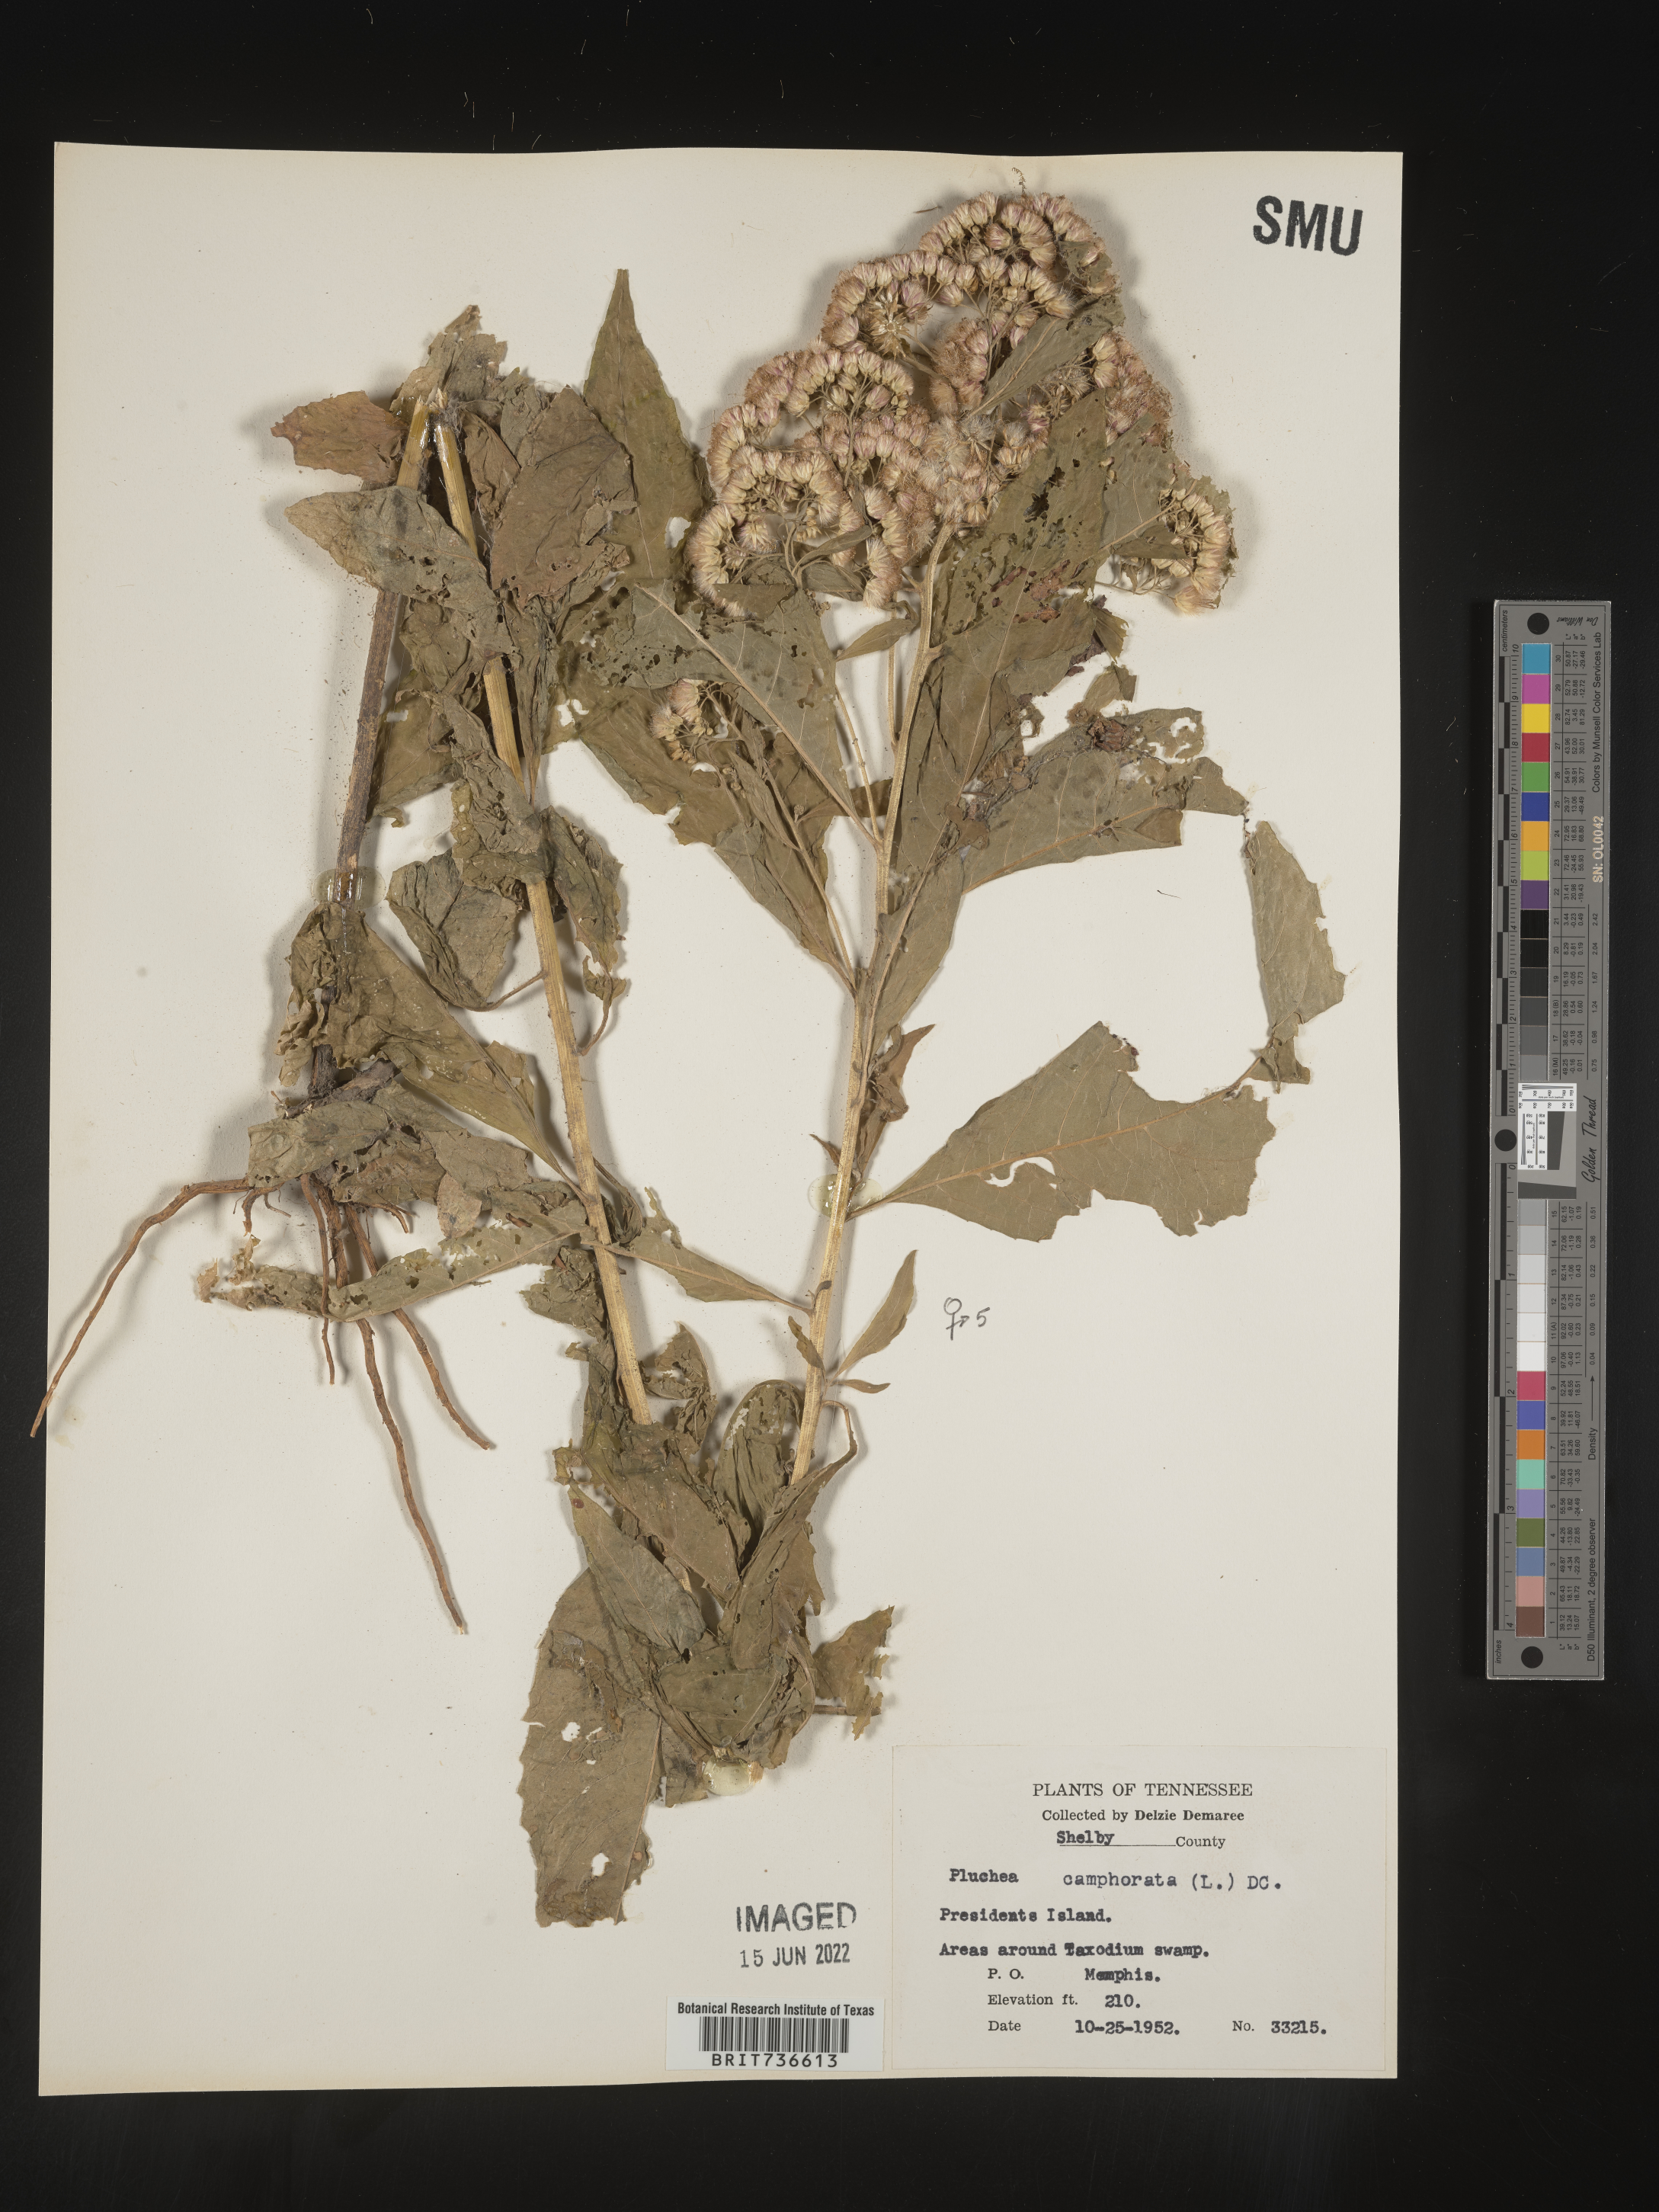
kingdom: Plantae
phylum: Tracheophyta
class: Magnoliopsida
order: Asterales
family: Asteraceae
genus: Pluchea
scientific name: Pluchea camphorata
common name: Camphor pluchea
